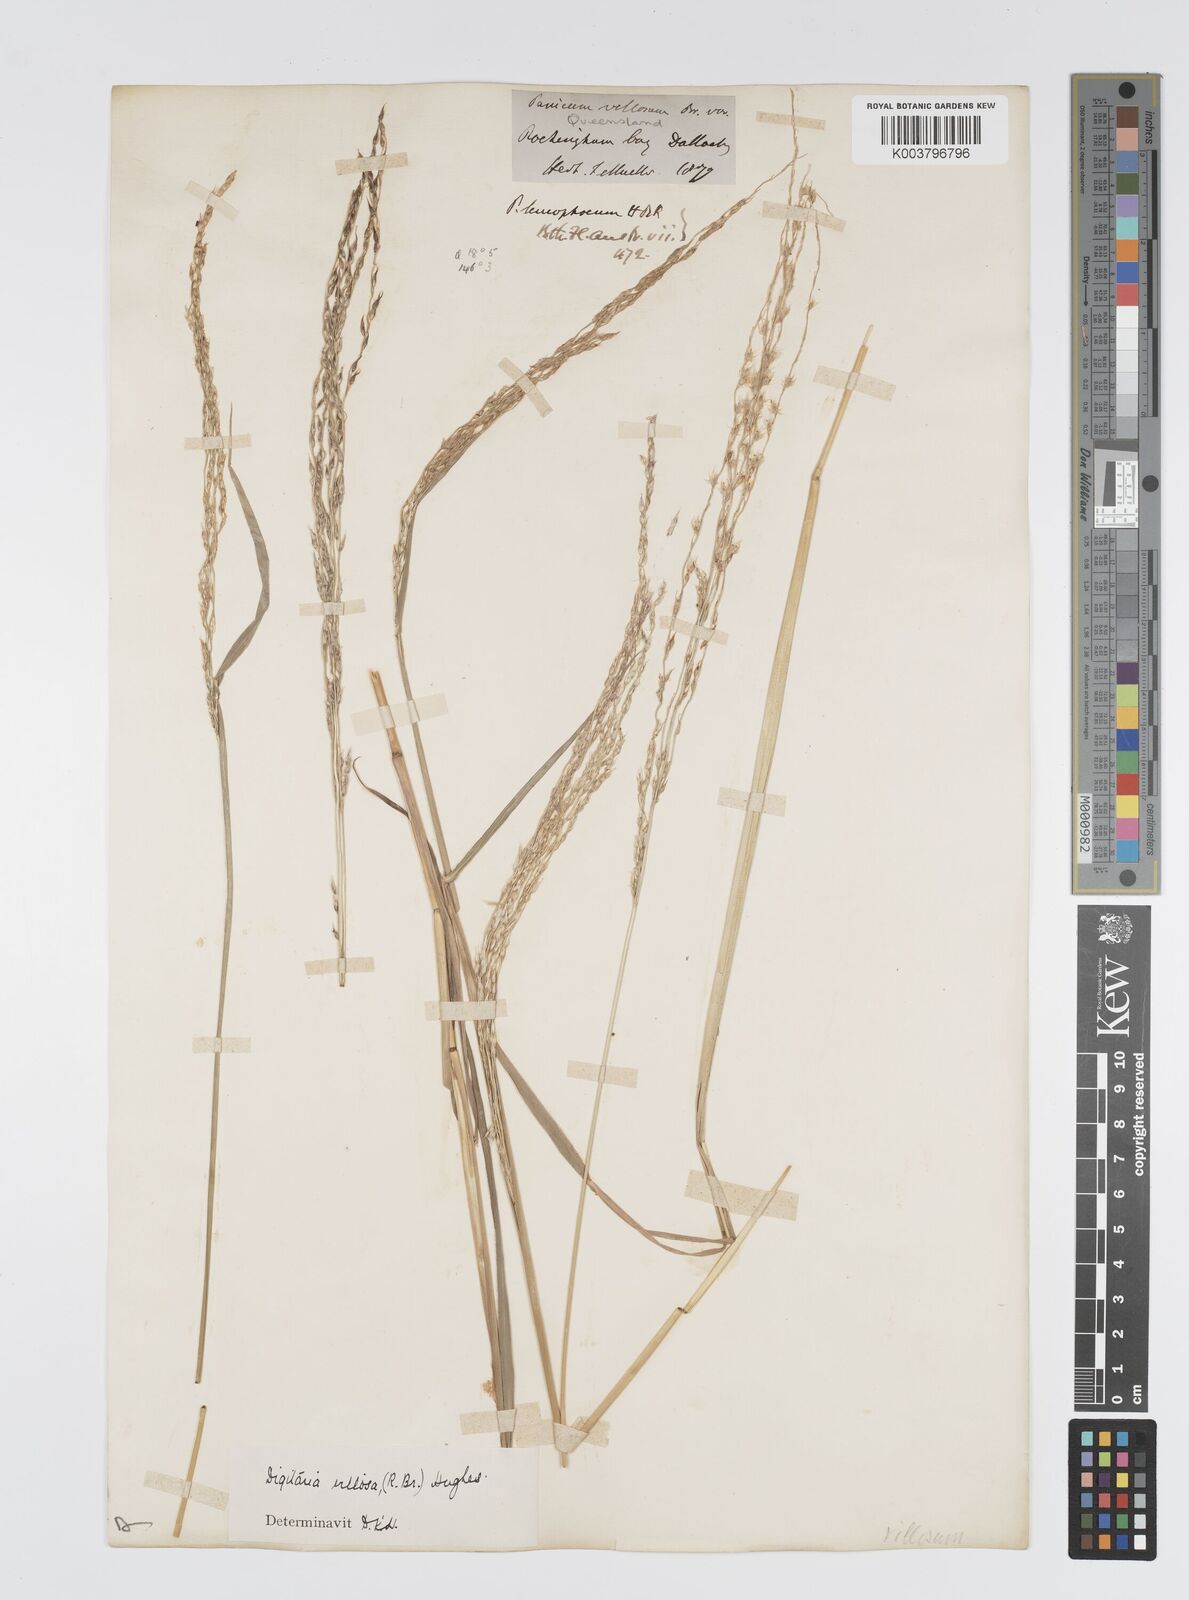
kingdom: Plantae
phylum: Tracheophyta
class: Liliopsida
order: Poales
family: Poaceae
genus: Digitaria
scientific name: Digitaria brownii
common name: Cotton grass
